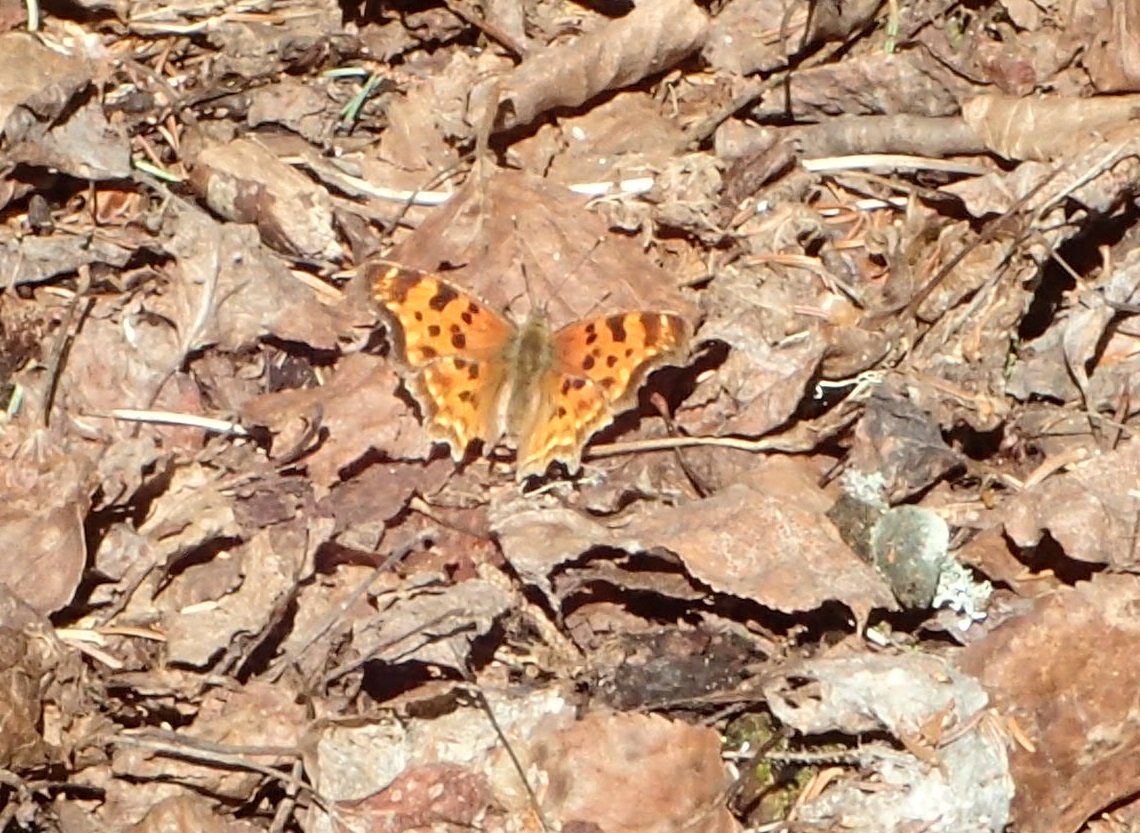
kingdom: Animalia
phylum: Arthropoda
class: Insecta
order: Lepidoptera
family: Nymphalidae
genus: Polygonia
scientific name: Polygonia satyrus
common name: Satyr Comma
